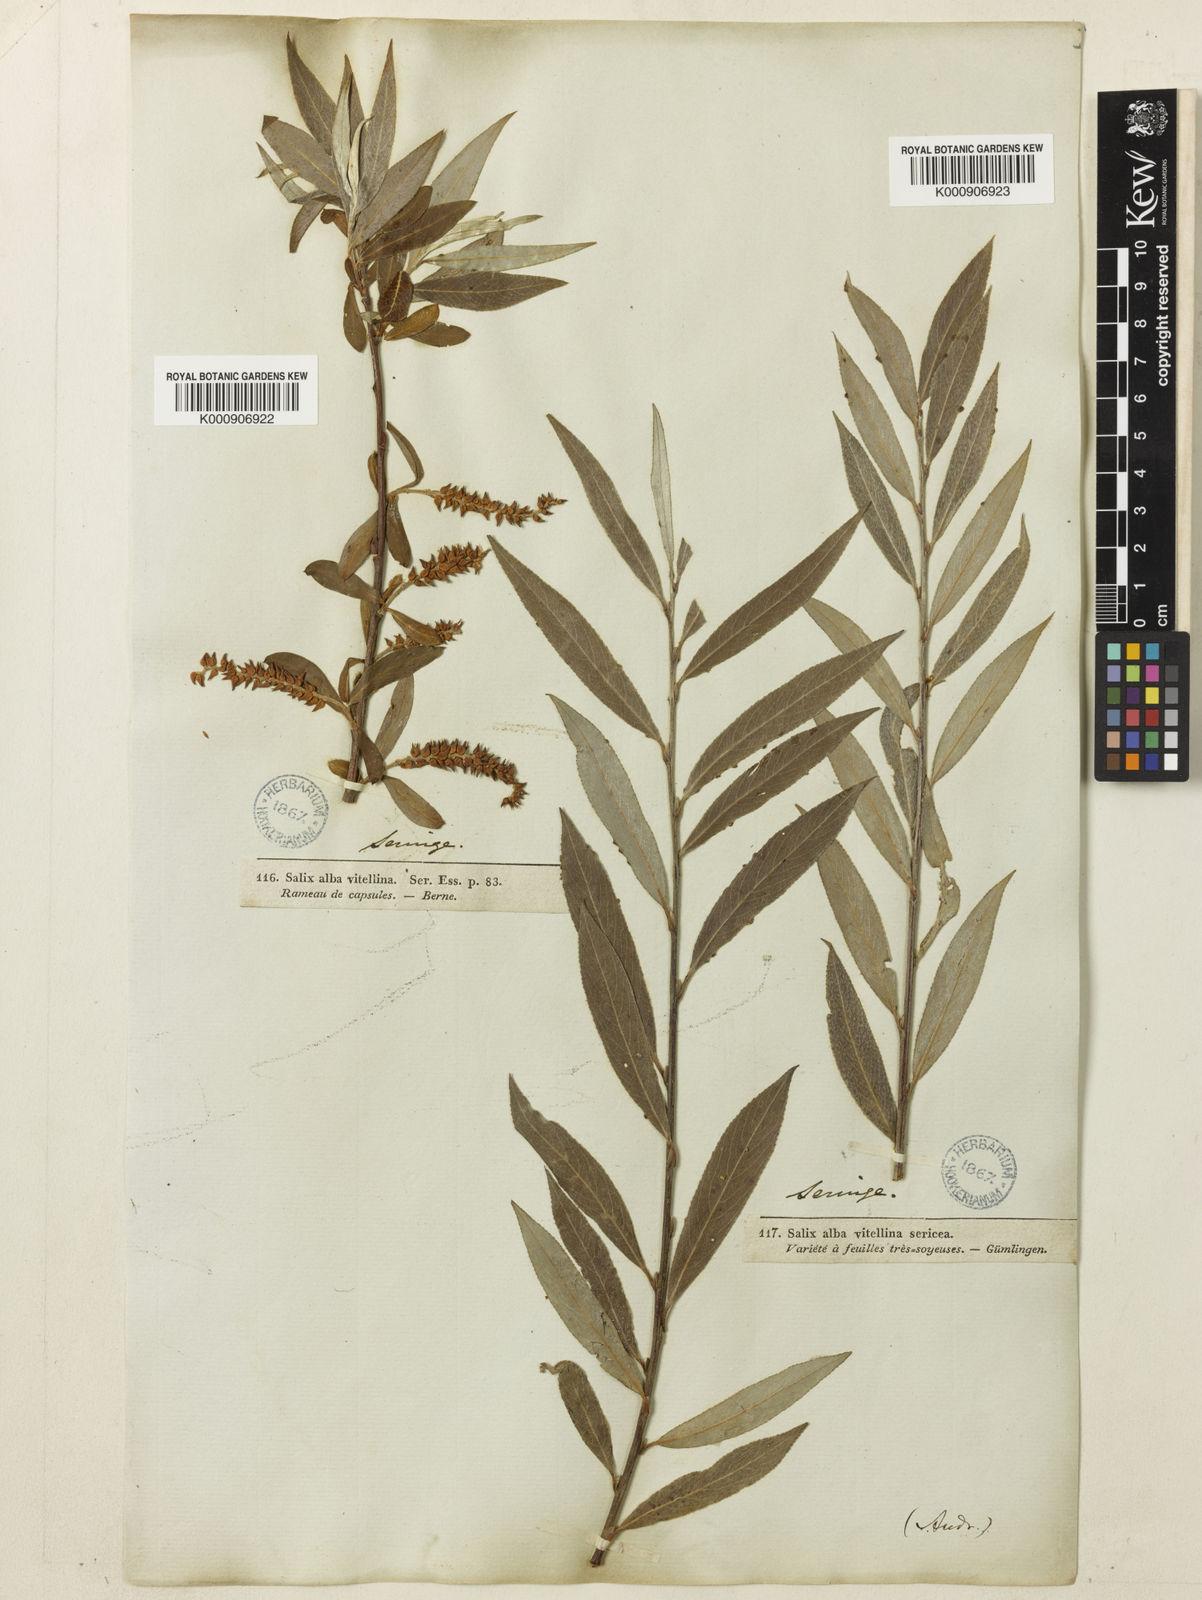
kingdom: Plantae
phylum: Tracheophyta
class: Magnoliopsida
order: Malpighiales
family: Salicaceae
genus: Salix
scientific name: Salix alba
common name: White willow
